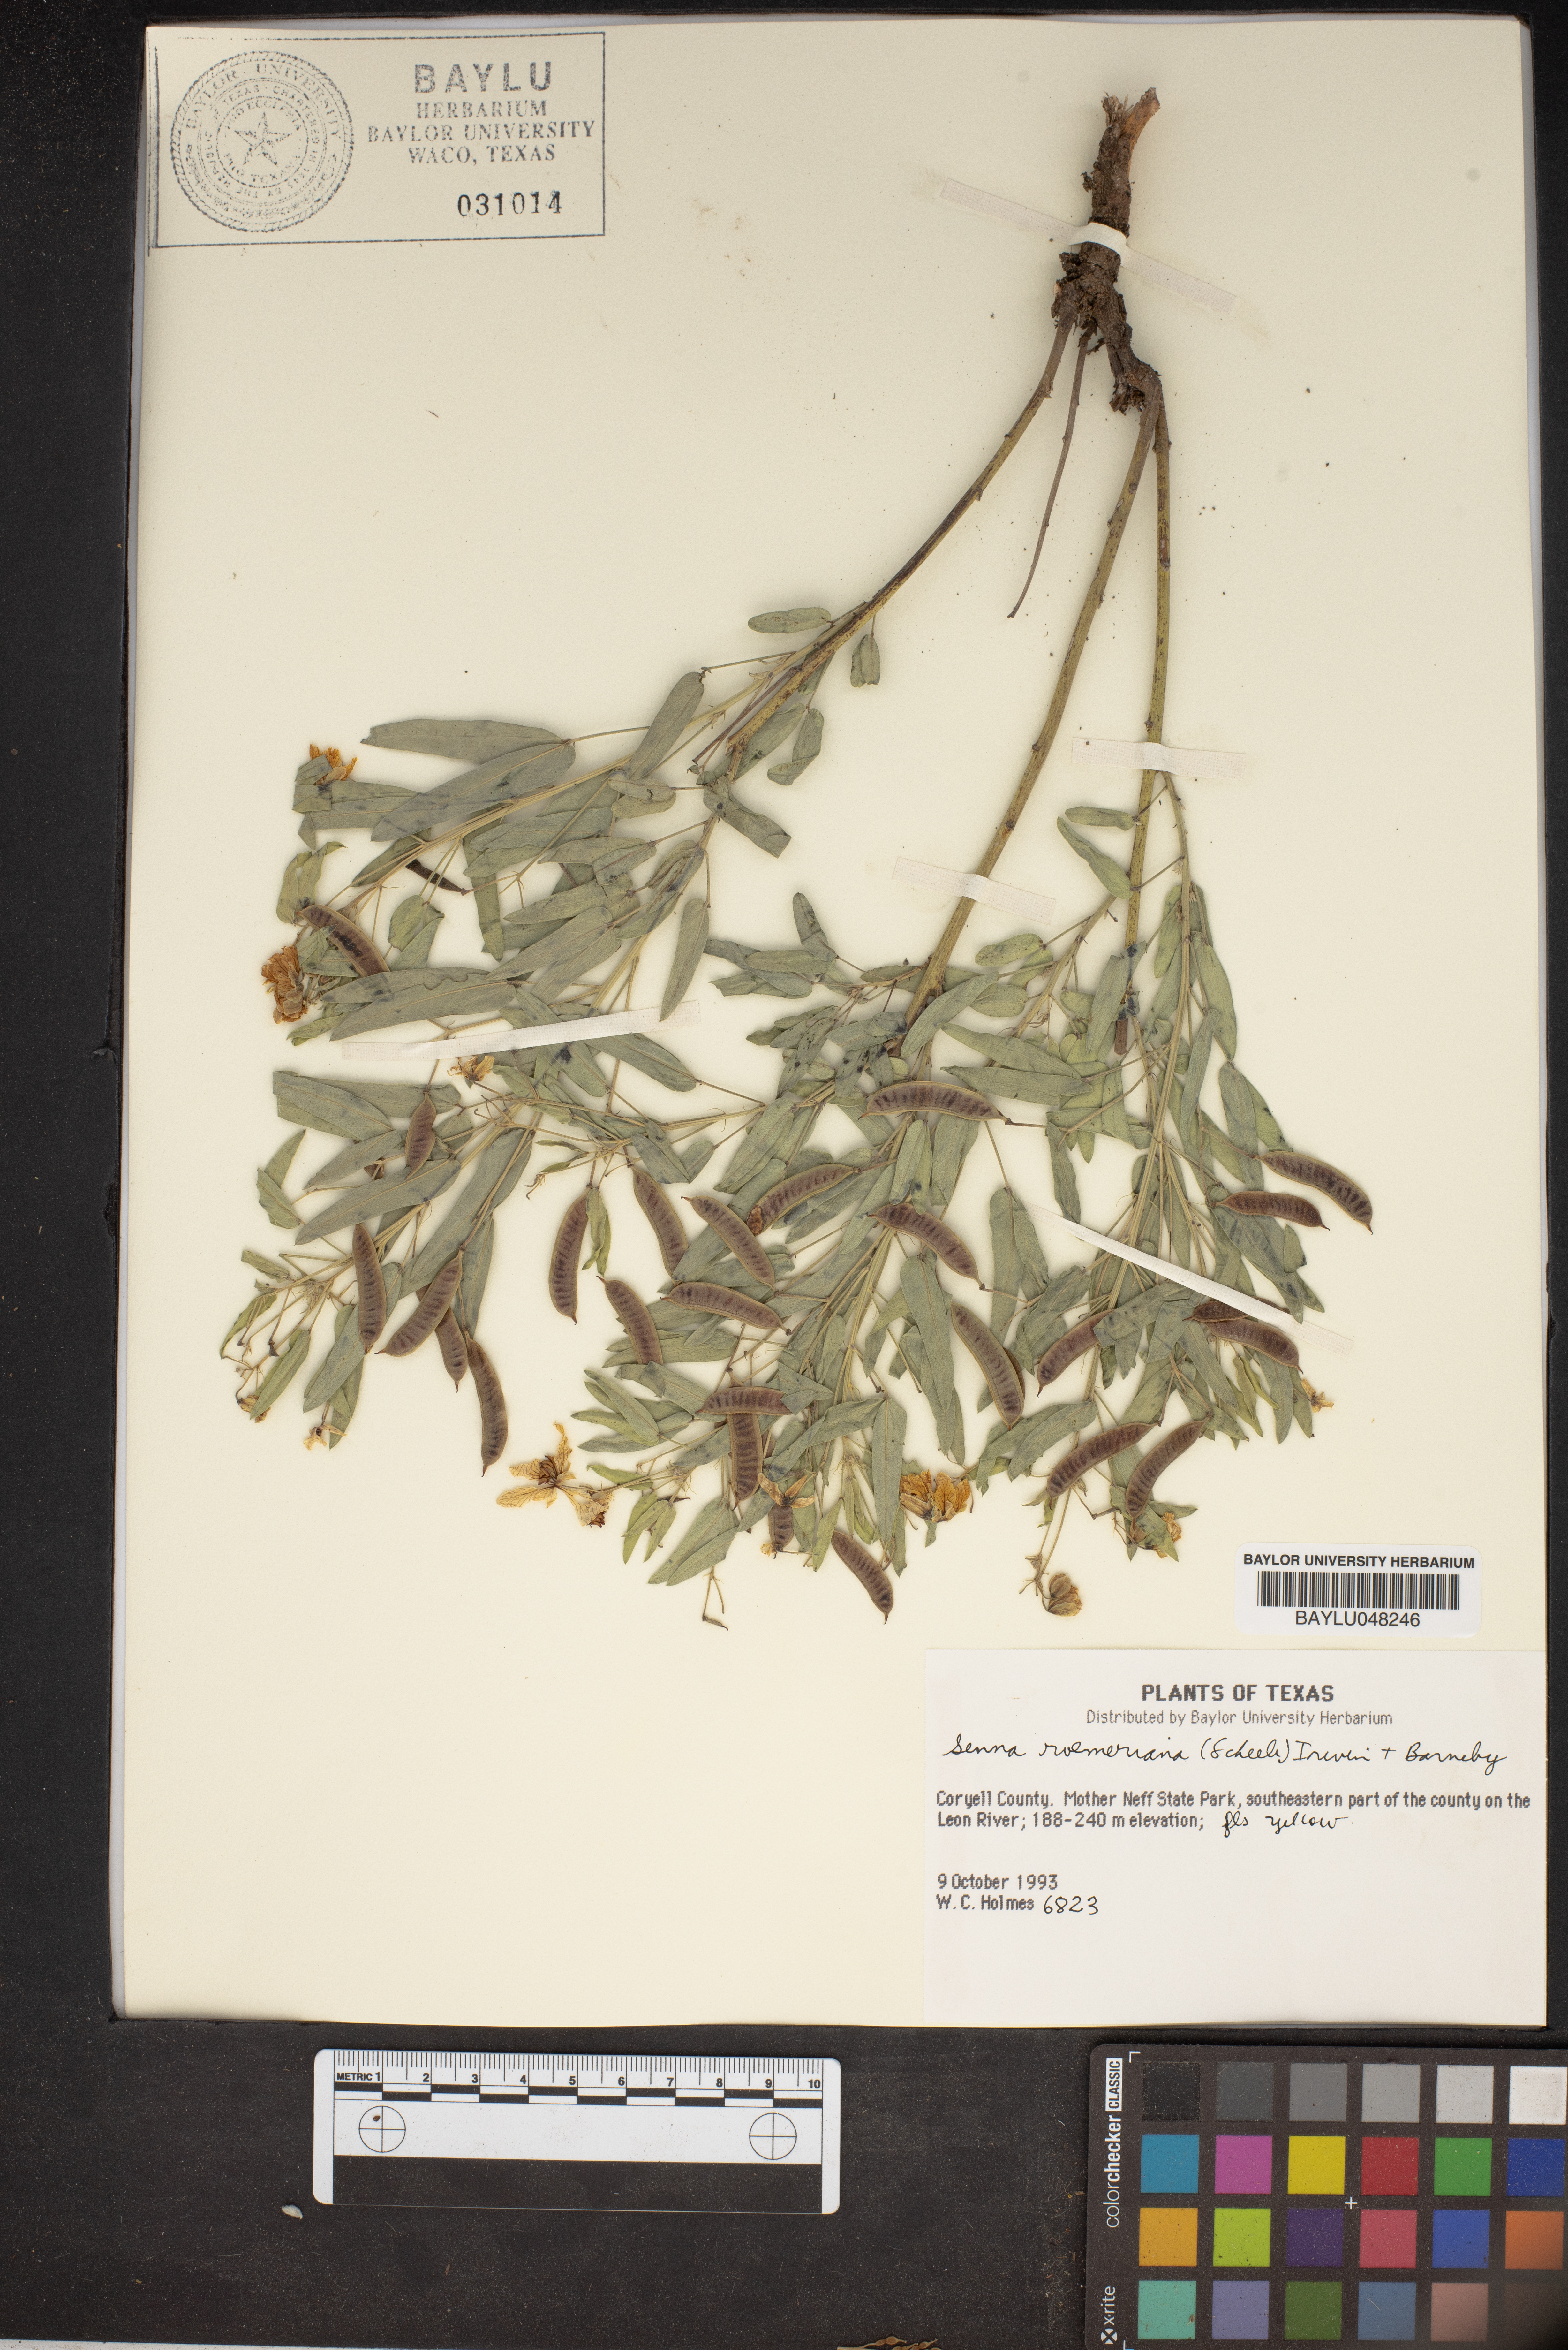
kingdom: Plantae
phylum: Tracheophyta
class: Magnoliopsida
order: Fabales
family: Fabaceae
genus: Senna
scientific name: Senna roemeriana
